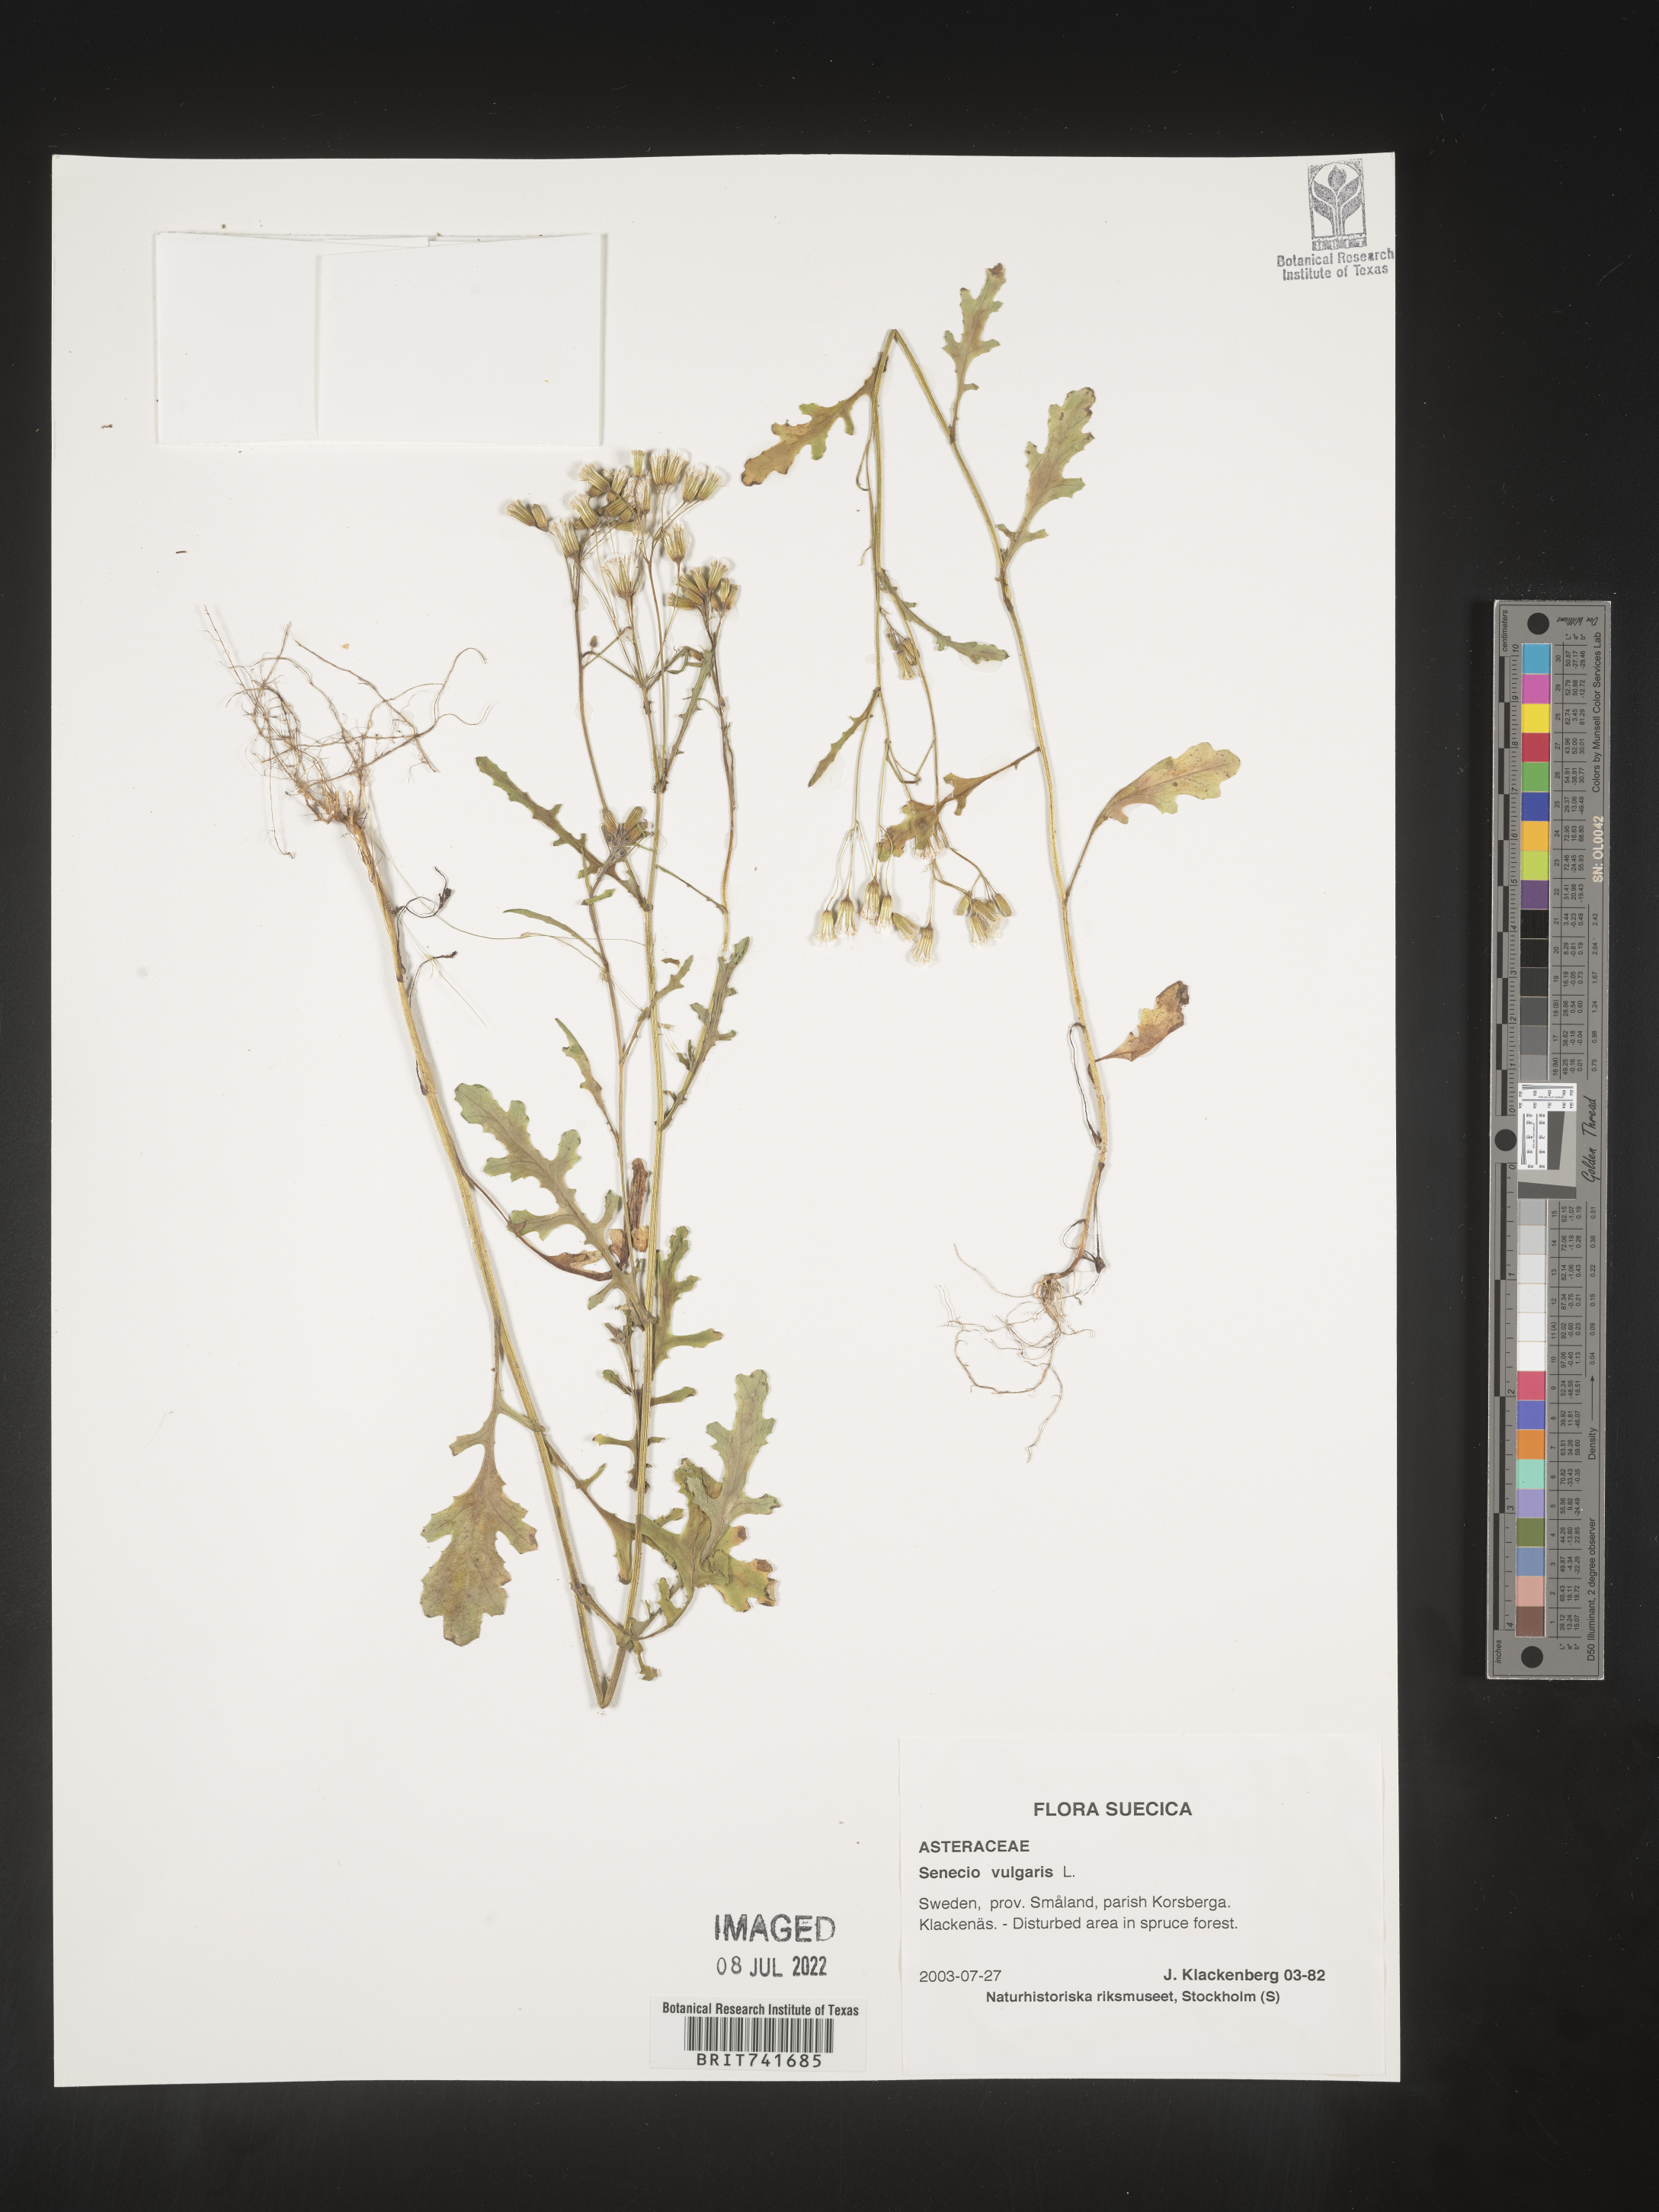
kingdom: Plantae
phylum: Tracheophyta
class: Magnoliopsida
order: Asterales
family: Asteraceae
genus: Senecio
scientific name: Senecio
